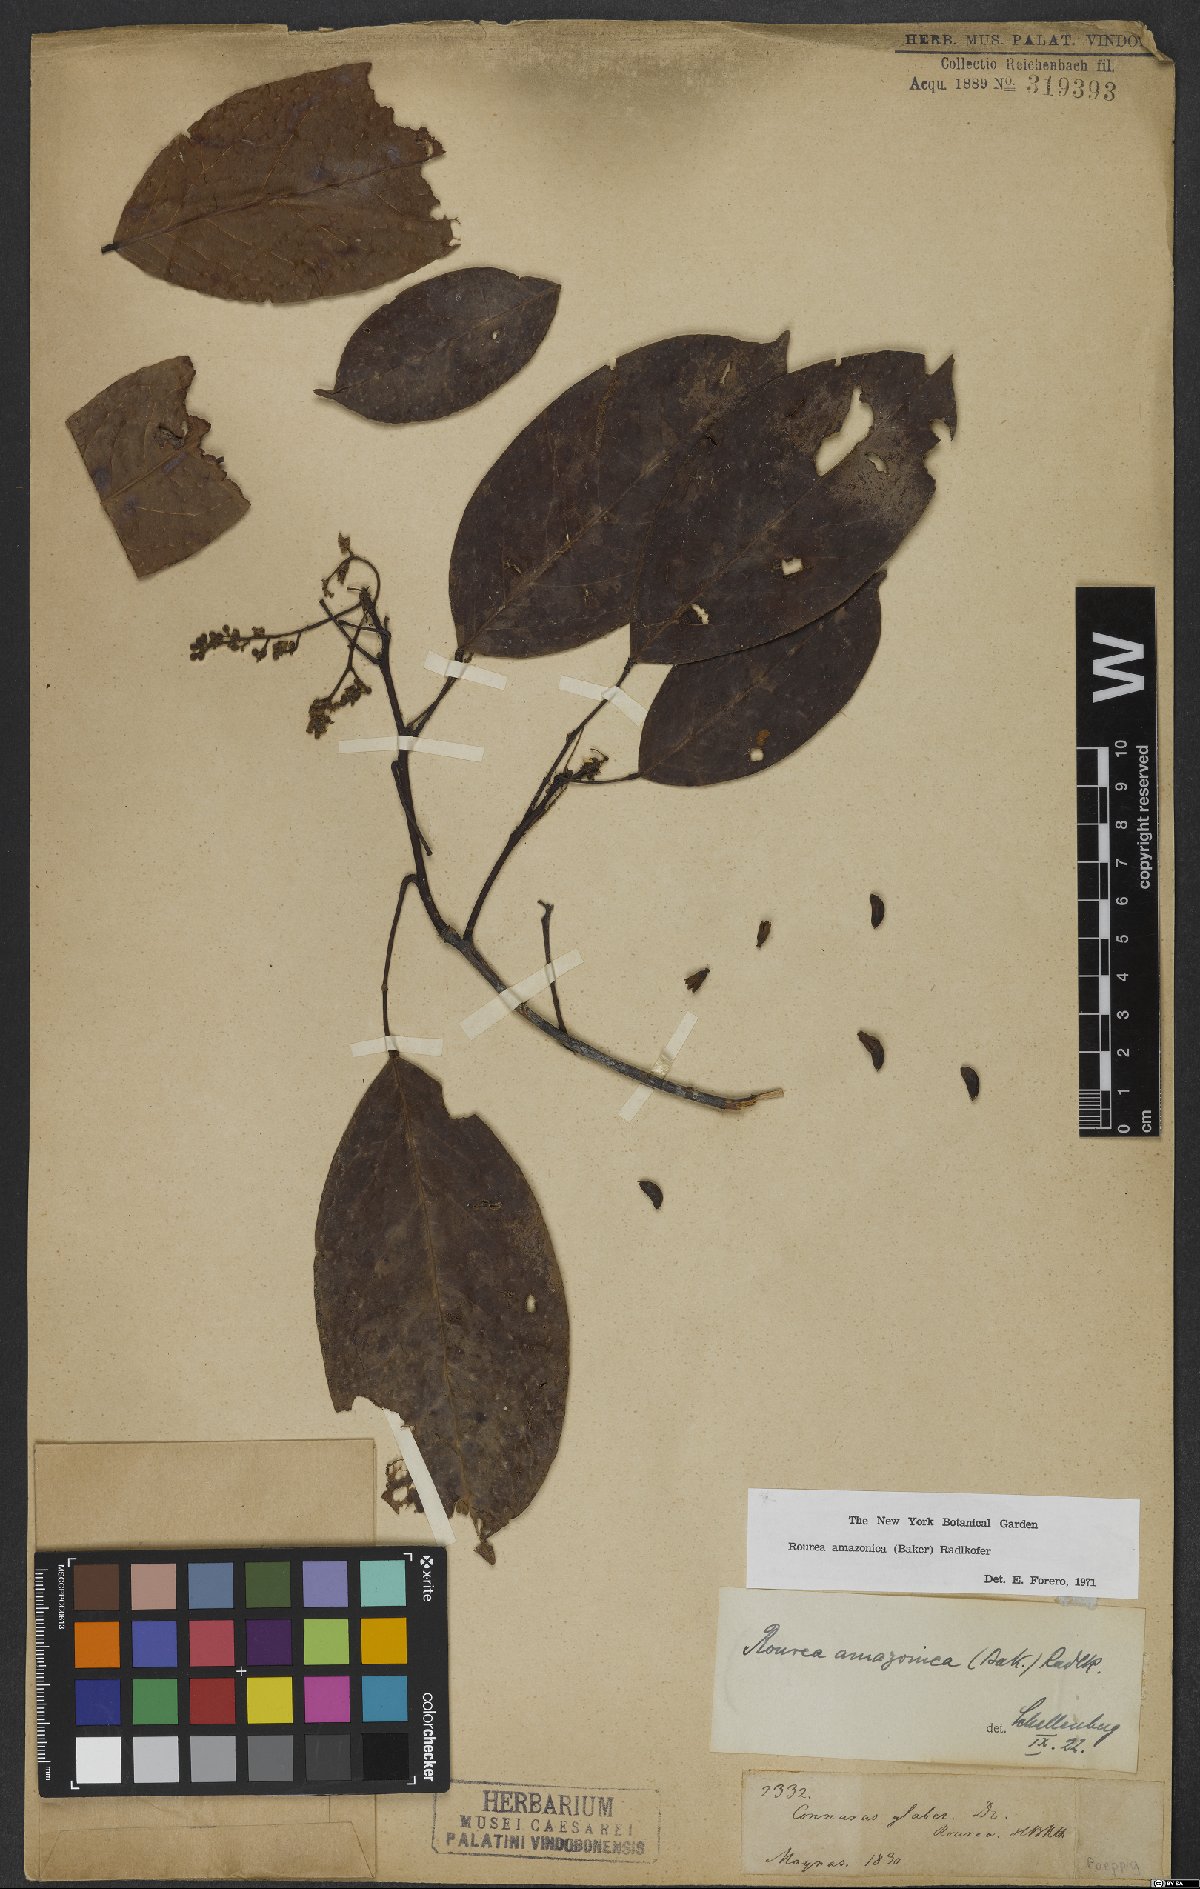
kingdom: Plantae
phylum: Tracheophyta
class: Magnoliopsida
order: Oxalidales
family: Connaraceae
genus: Rourea
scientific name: Rourea amazonica
